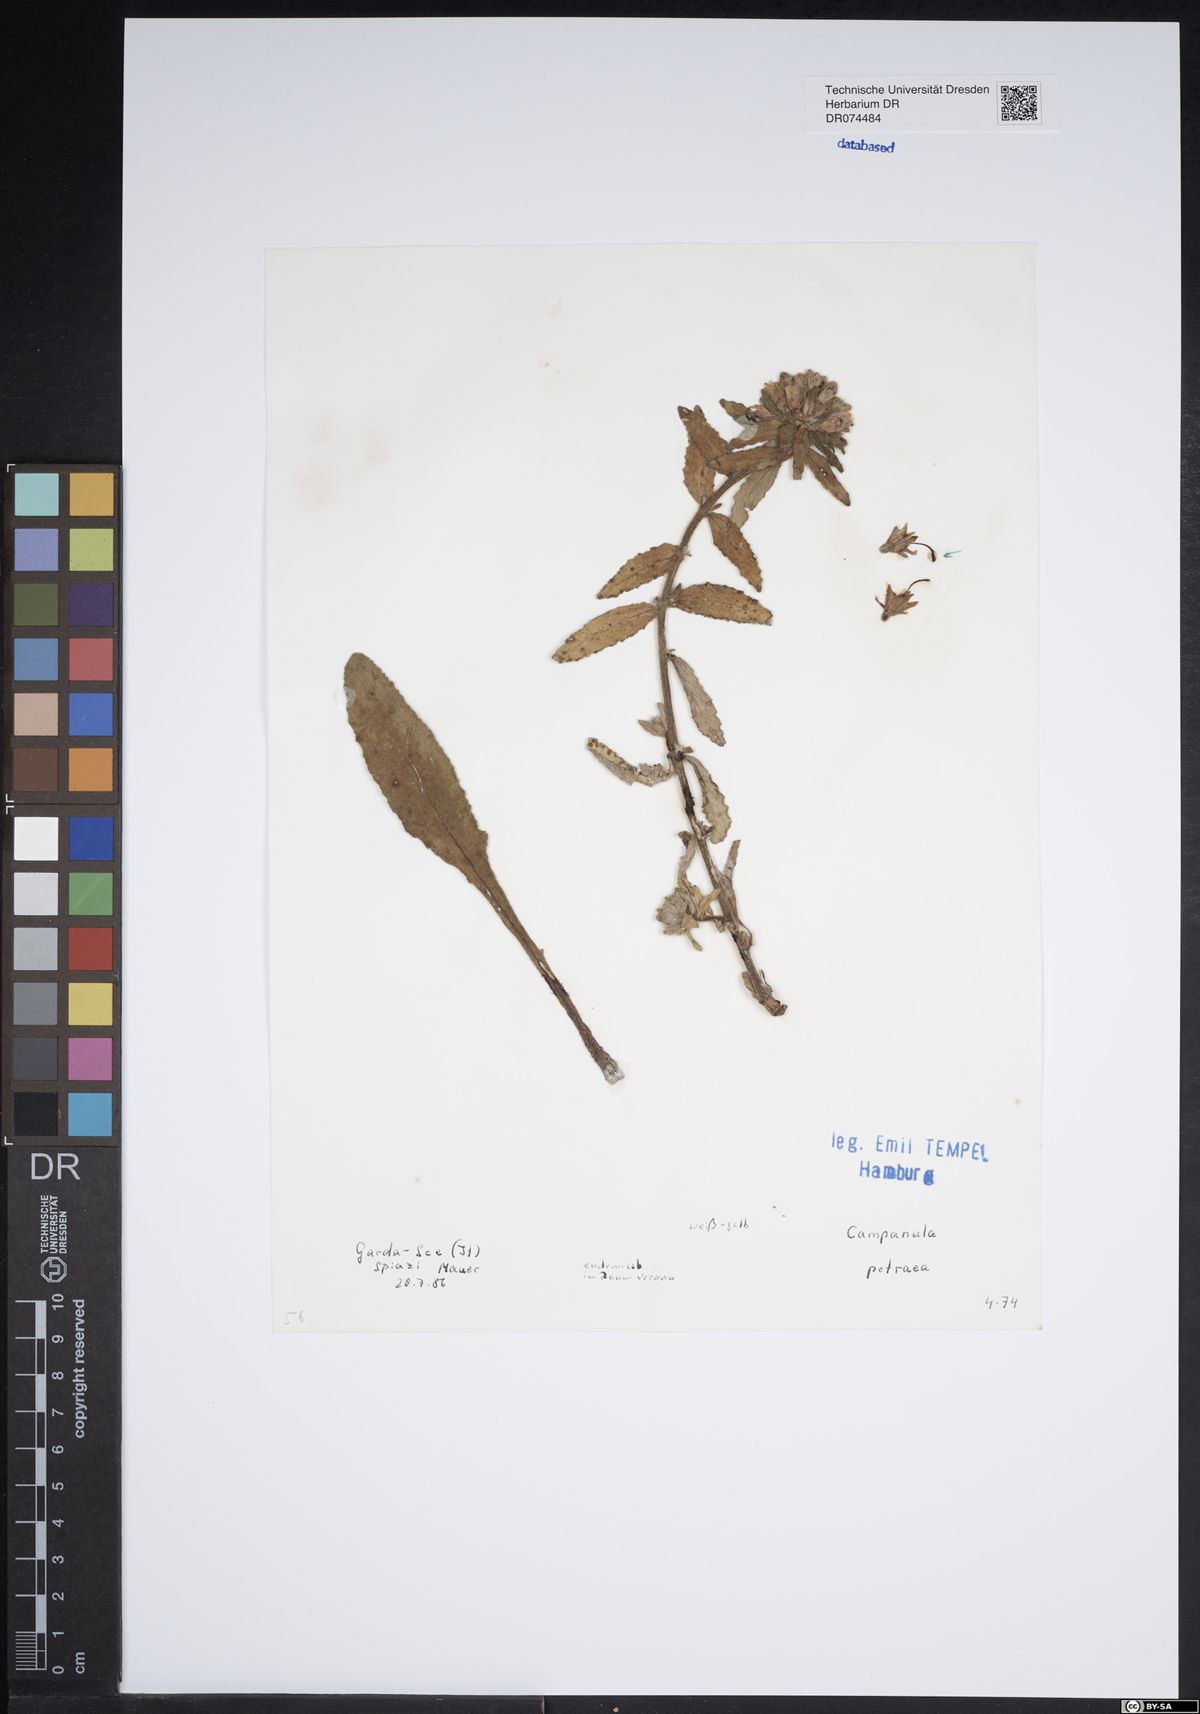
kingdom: Plantae
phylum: Tracheophyta
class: Magnoliopsida
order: Asterales
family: Campanulaceae
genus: Campanula
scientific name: Campanula petraea
